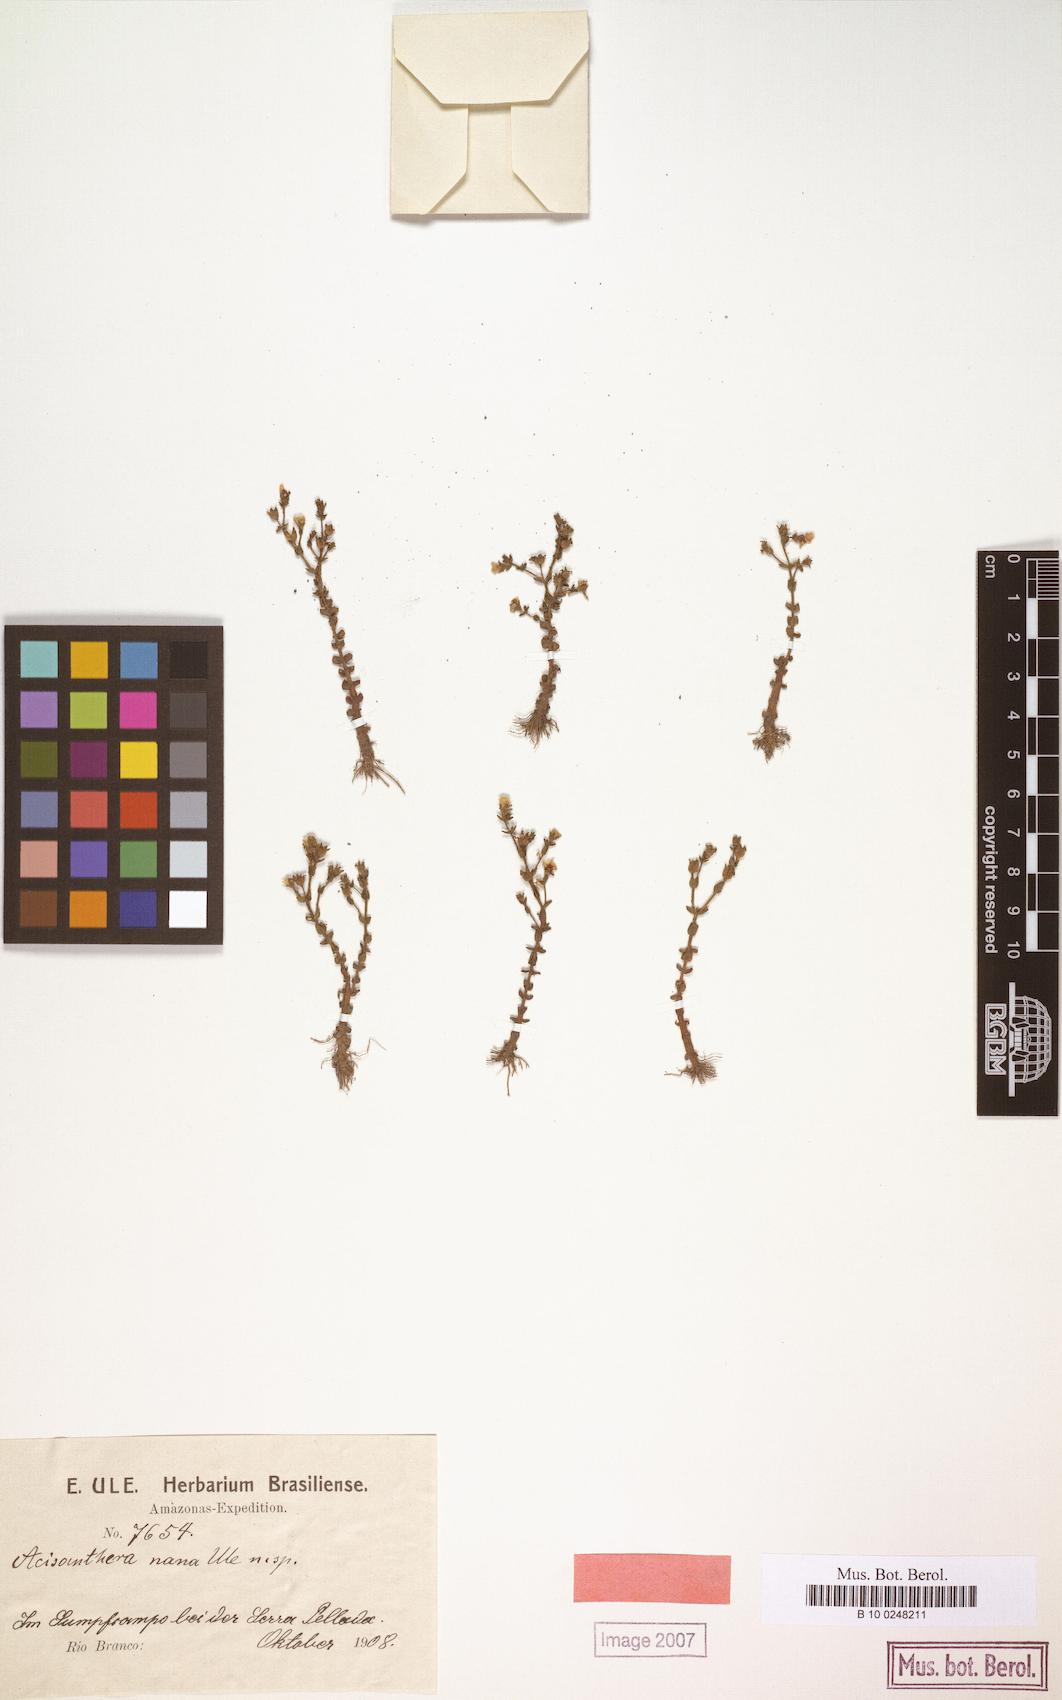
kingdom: Plantae
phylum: Tracheophyta
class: Magnoliopsida
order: Myrtales
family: Melastomataceae
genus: Noterophila
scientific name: Noterophila nana
